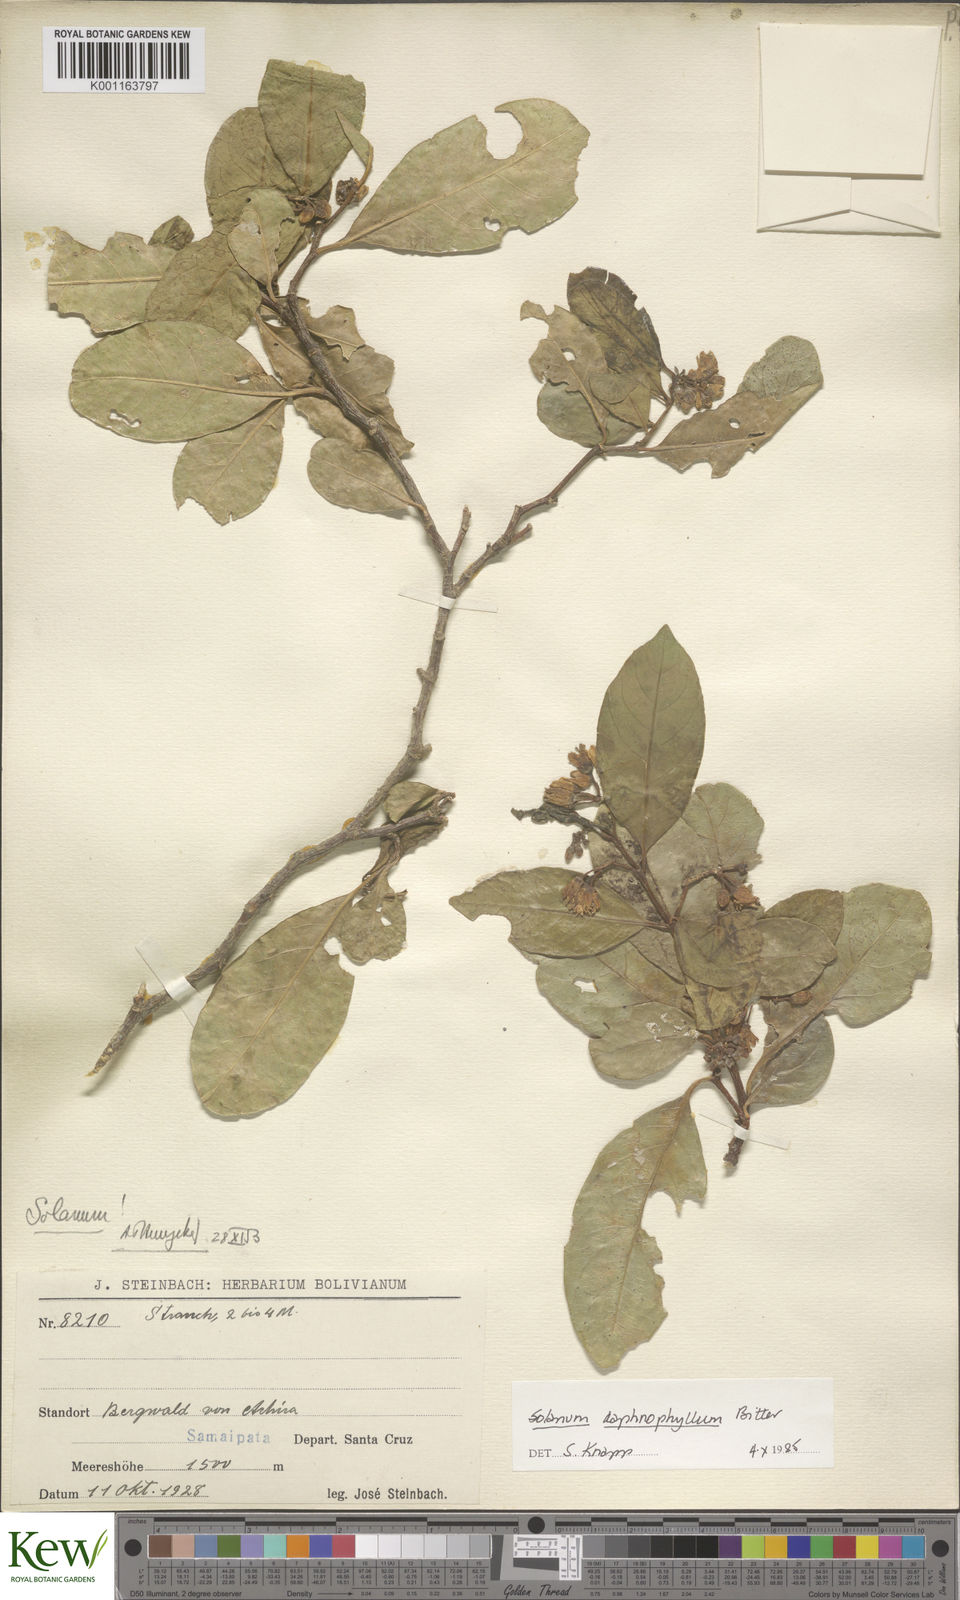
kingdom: Plantae
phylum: Tracheophyta
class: Magnoliopsida
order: Solanales
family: Solanaceae
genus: Solanum
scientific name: Solanum daphnophyllum
